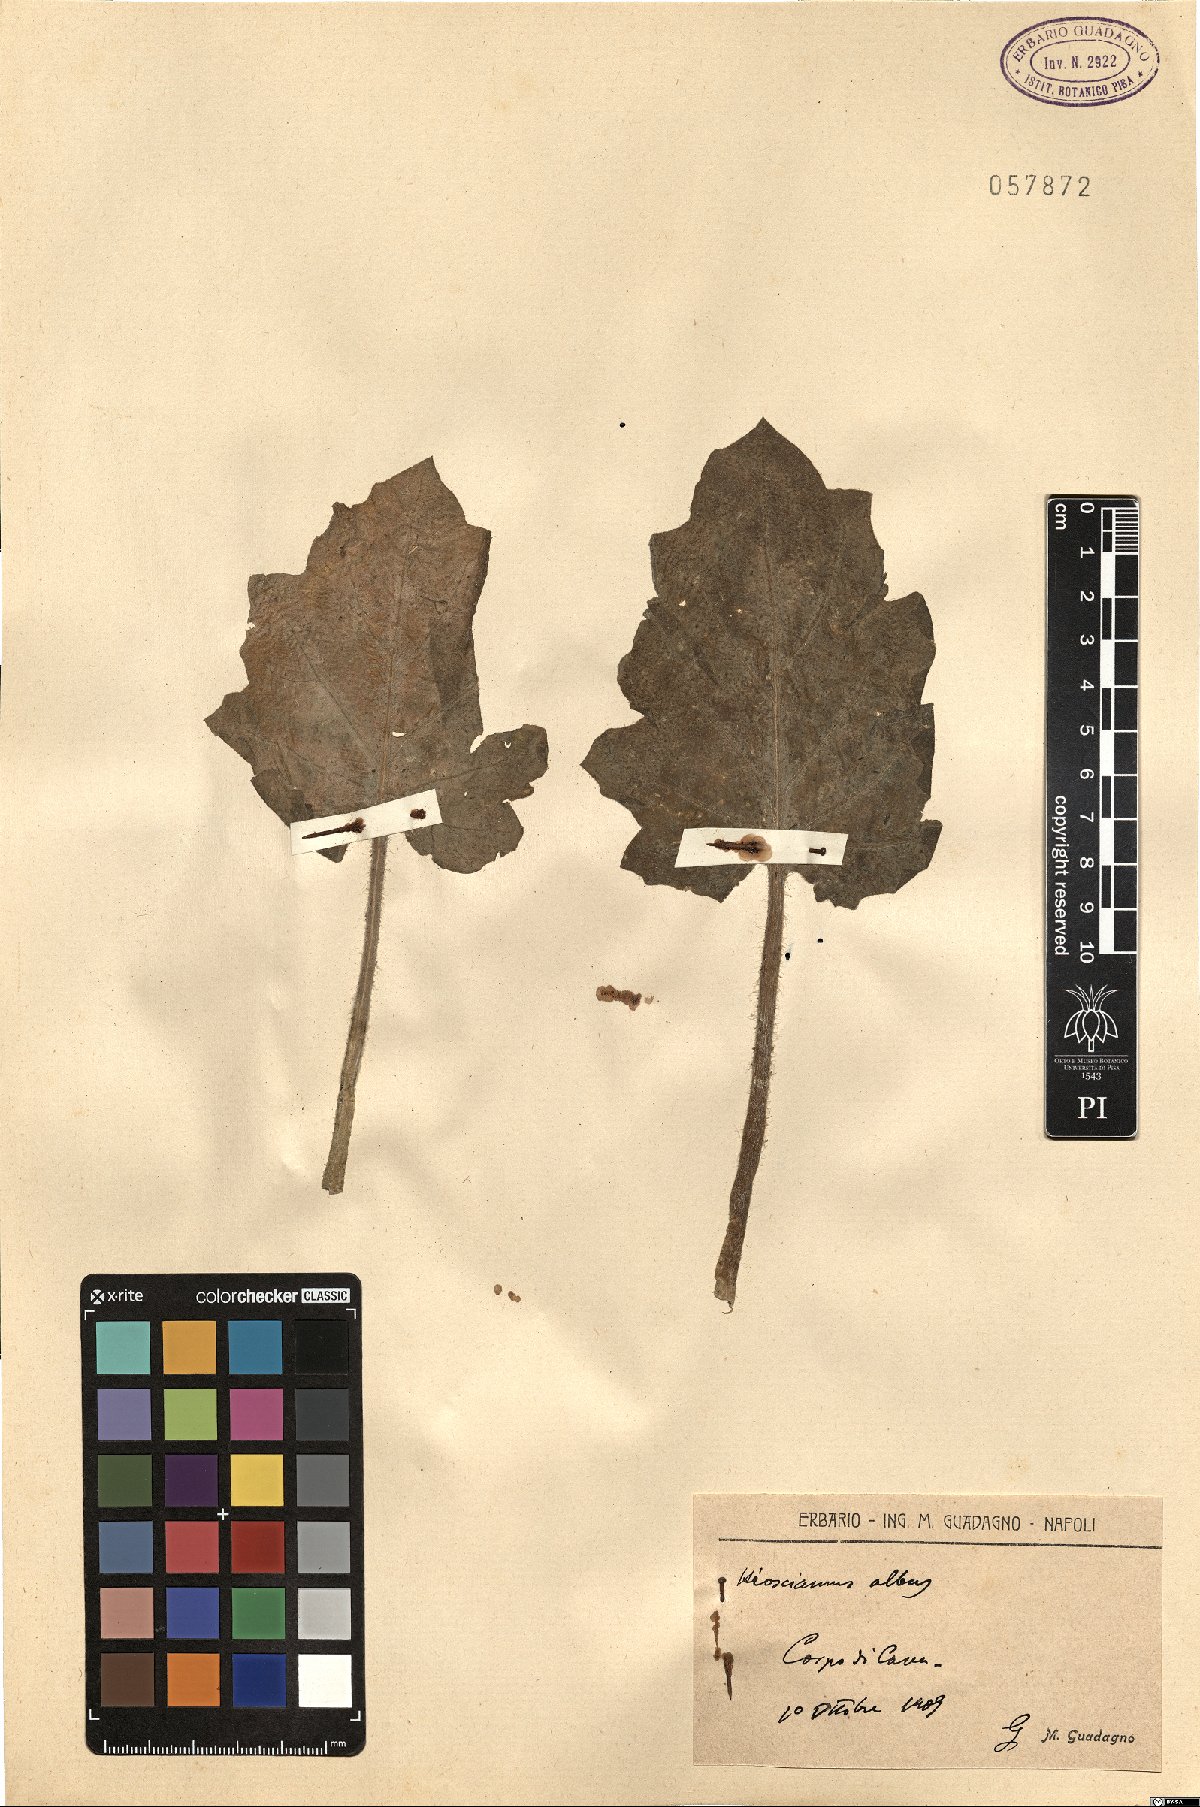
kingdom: Plantae
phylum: Tracheophyta
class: Magnoliopsida
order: Solanales
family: Solanaceae
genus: Hyoscyamus
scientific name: Hyoscyamus albus
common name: White henbane
